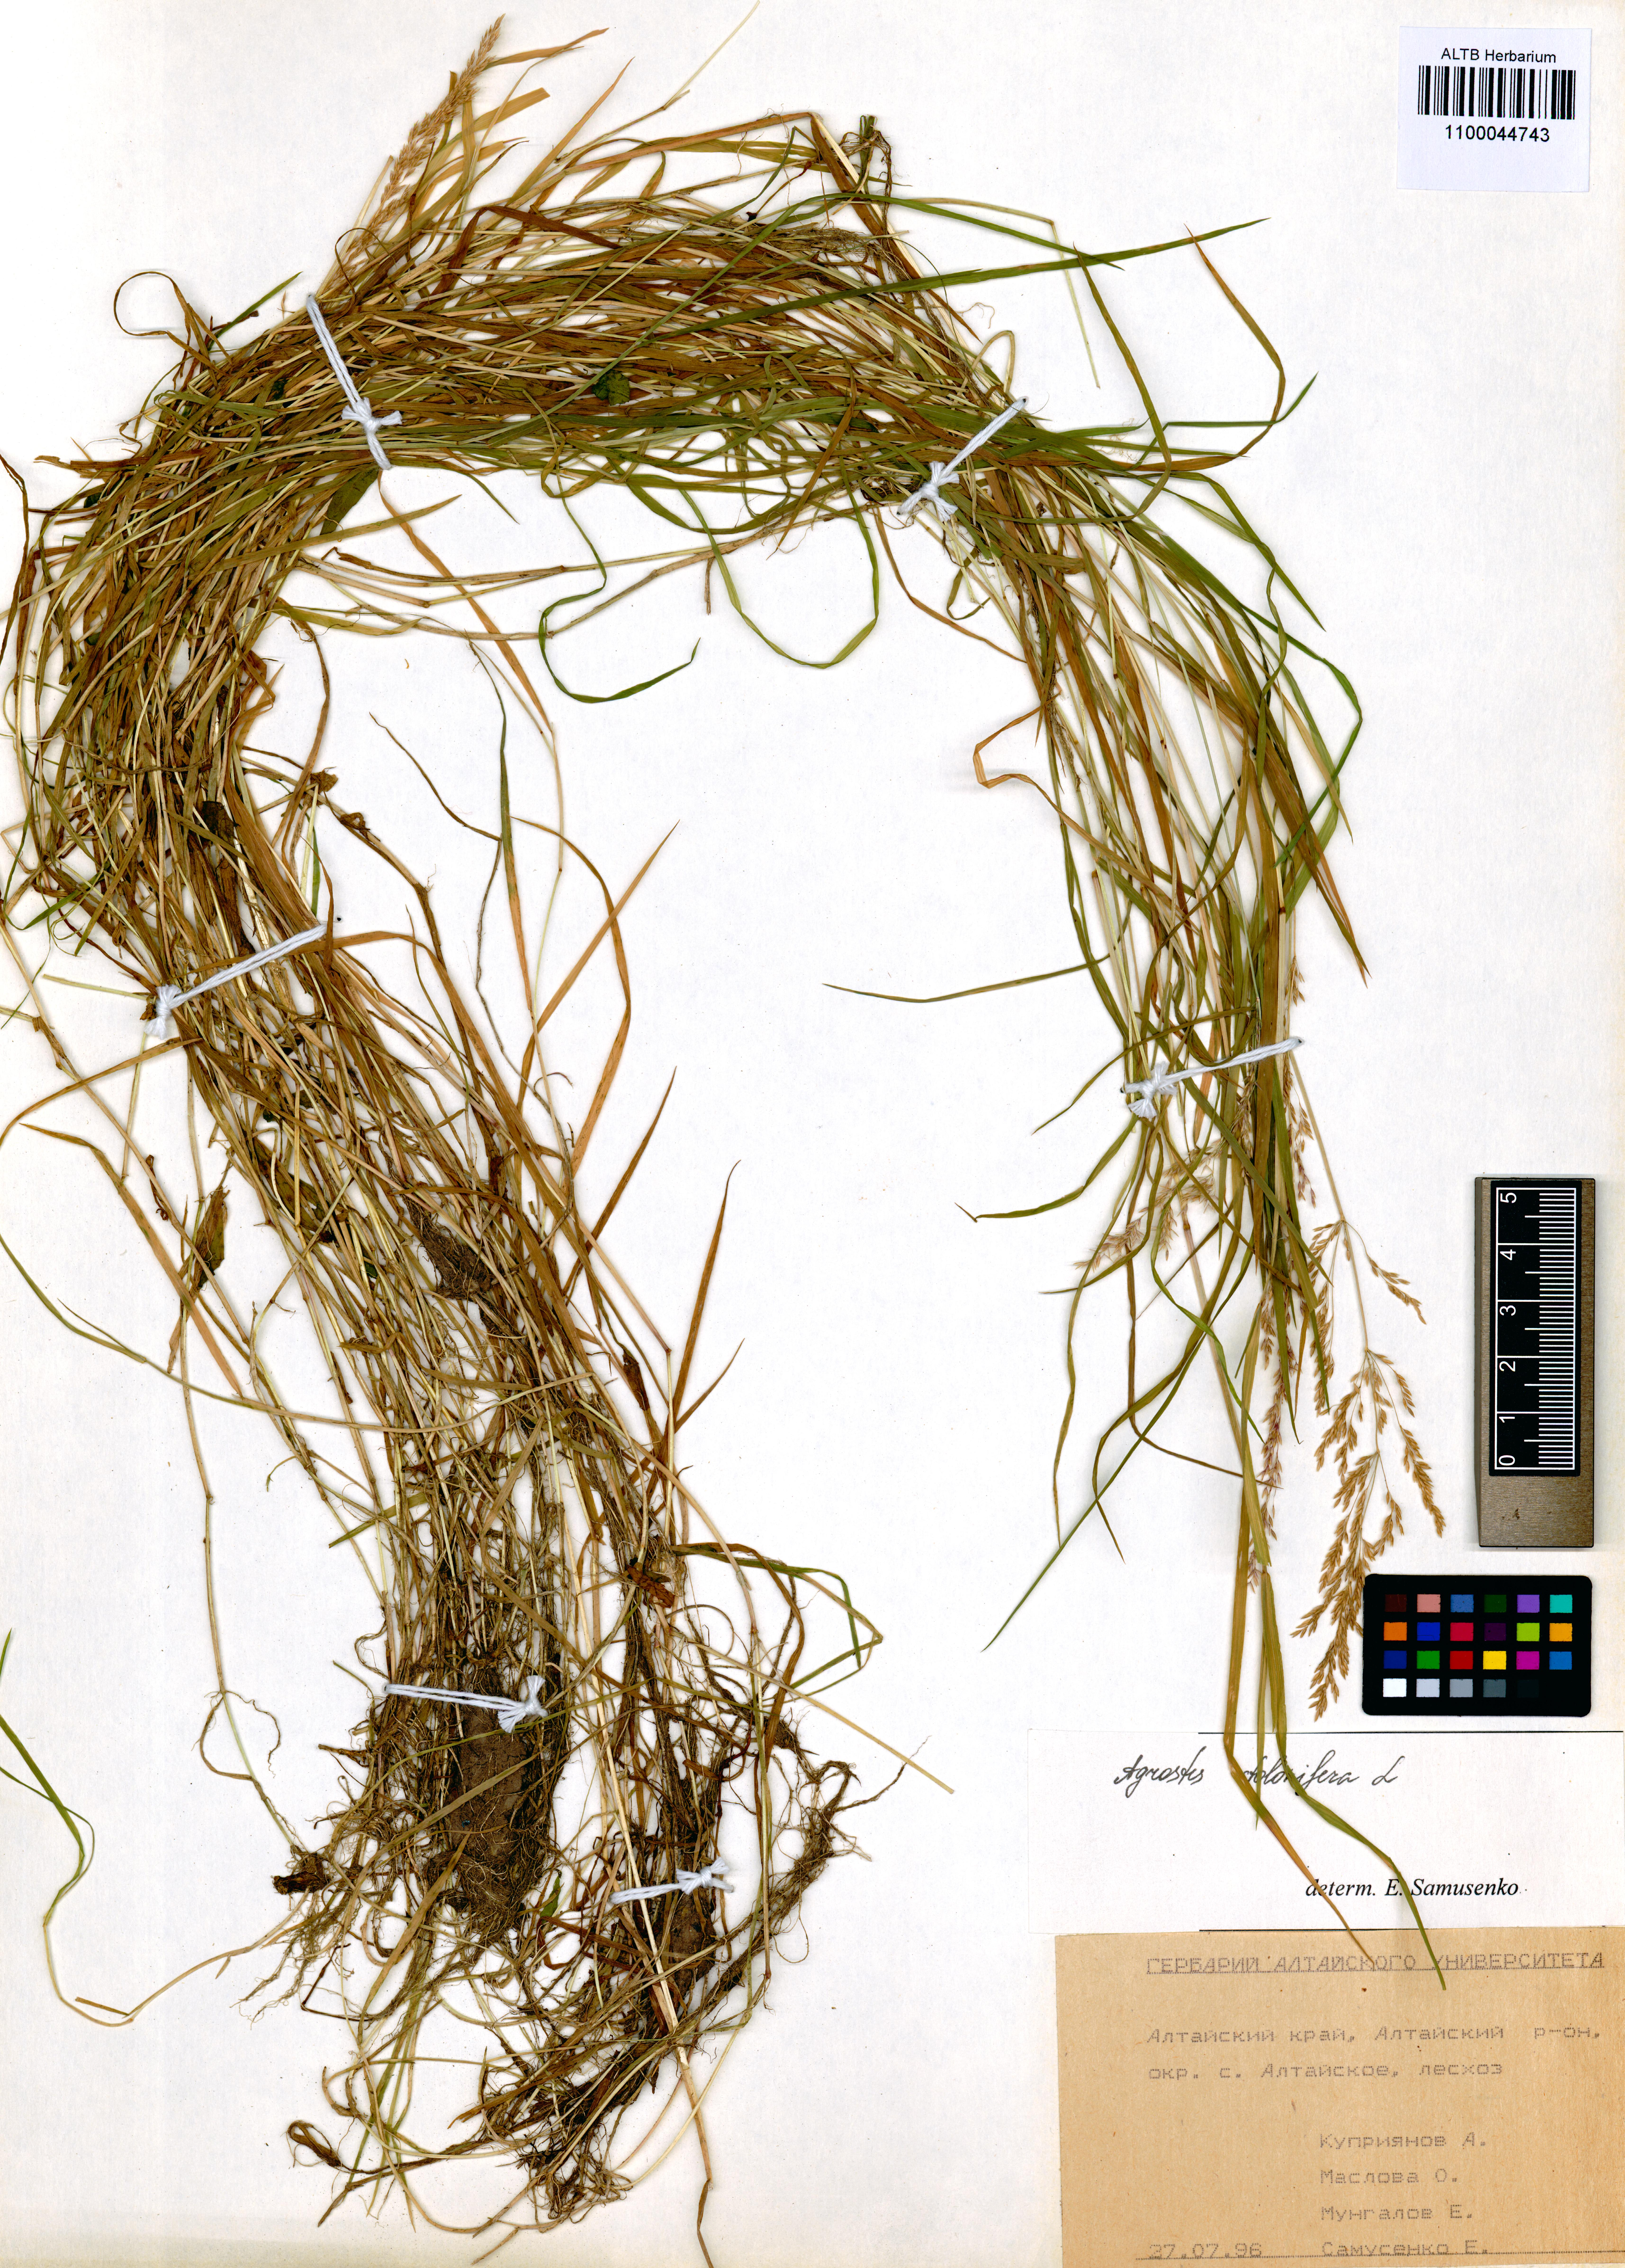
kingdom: Plantae
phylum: Tracheophyta
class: Liliopsida
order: Poales
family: Poaceae
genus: Agrostis
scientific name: Agrostis stolonifera
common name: Creeping bentgrass
